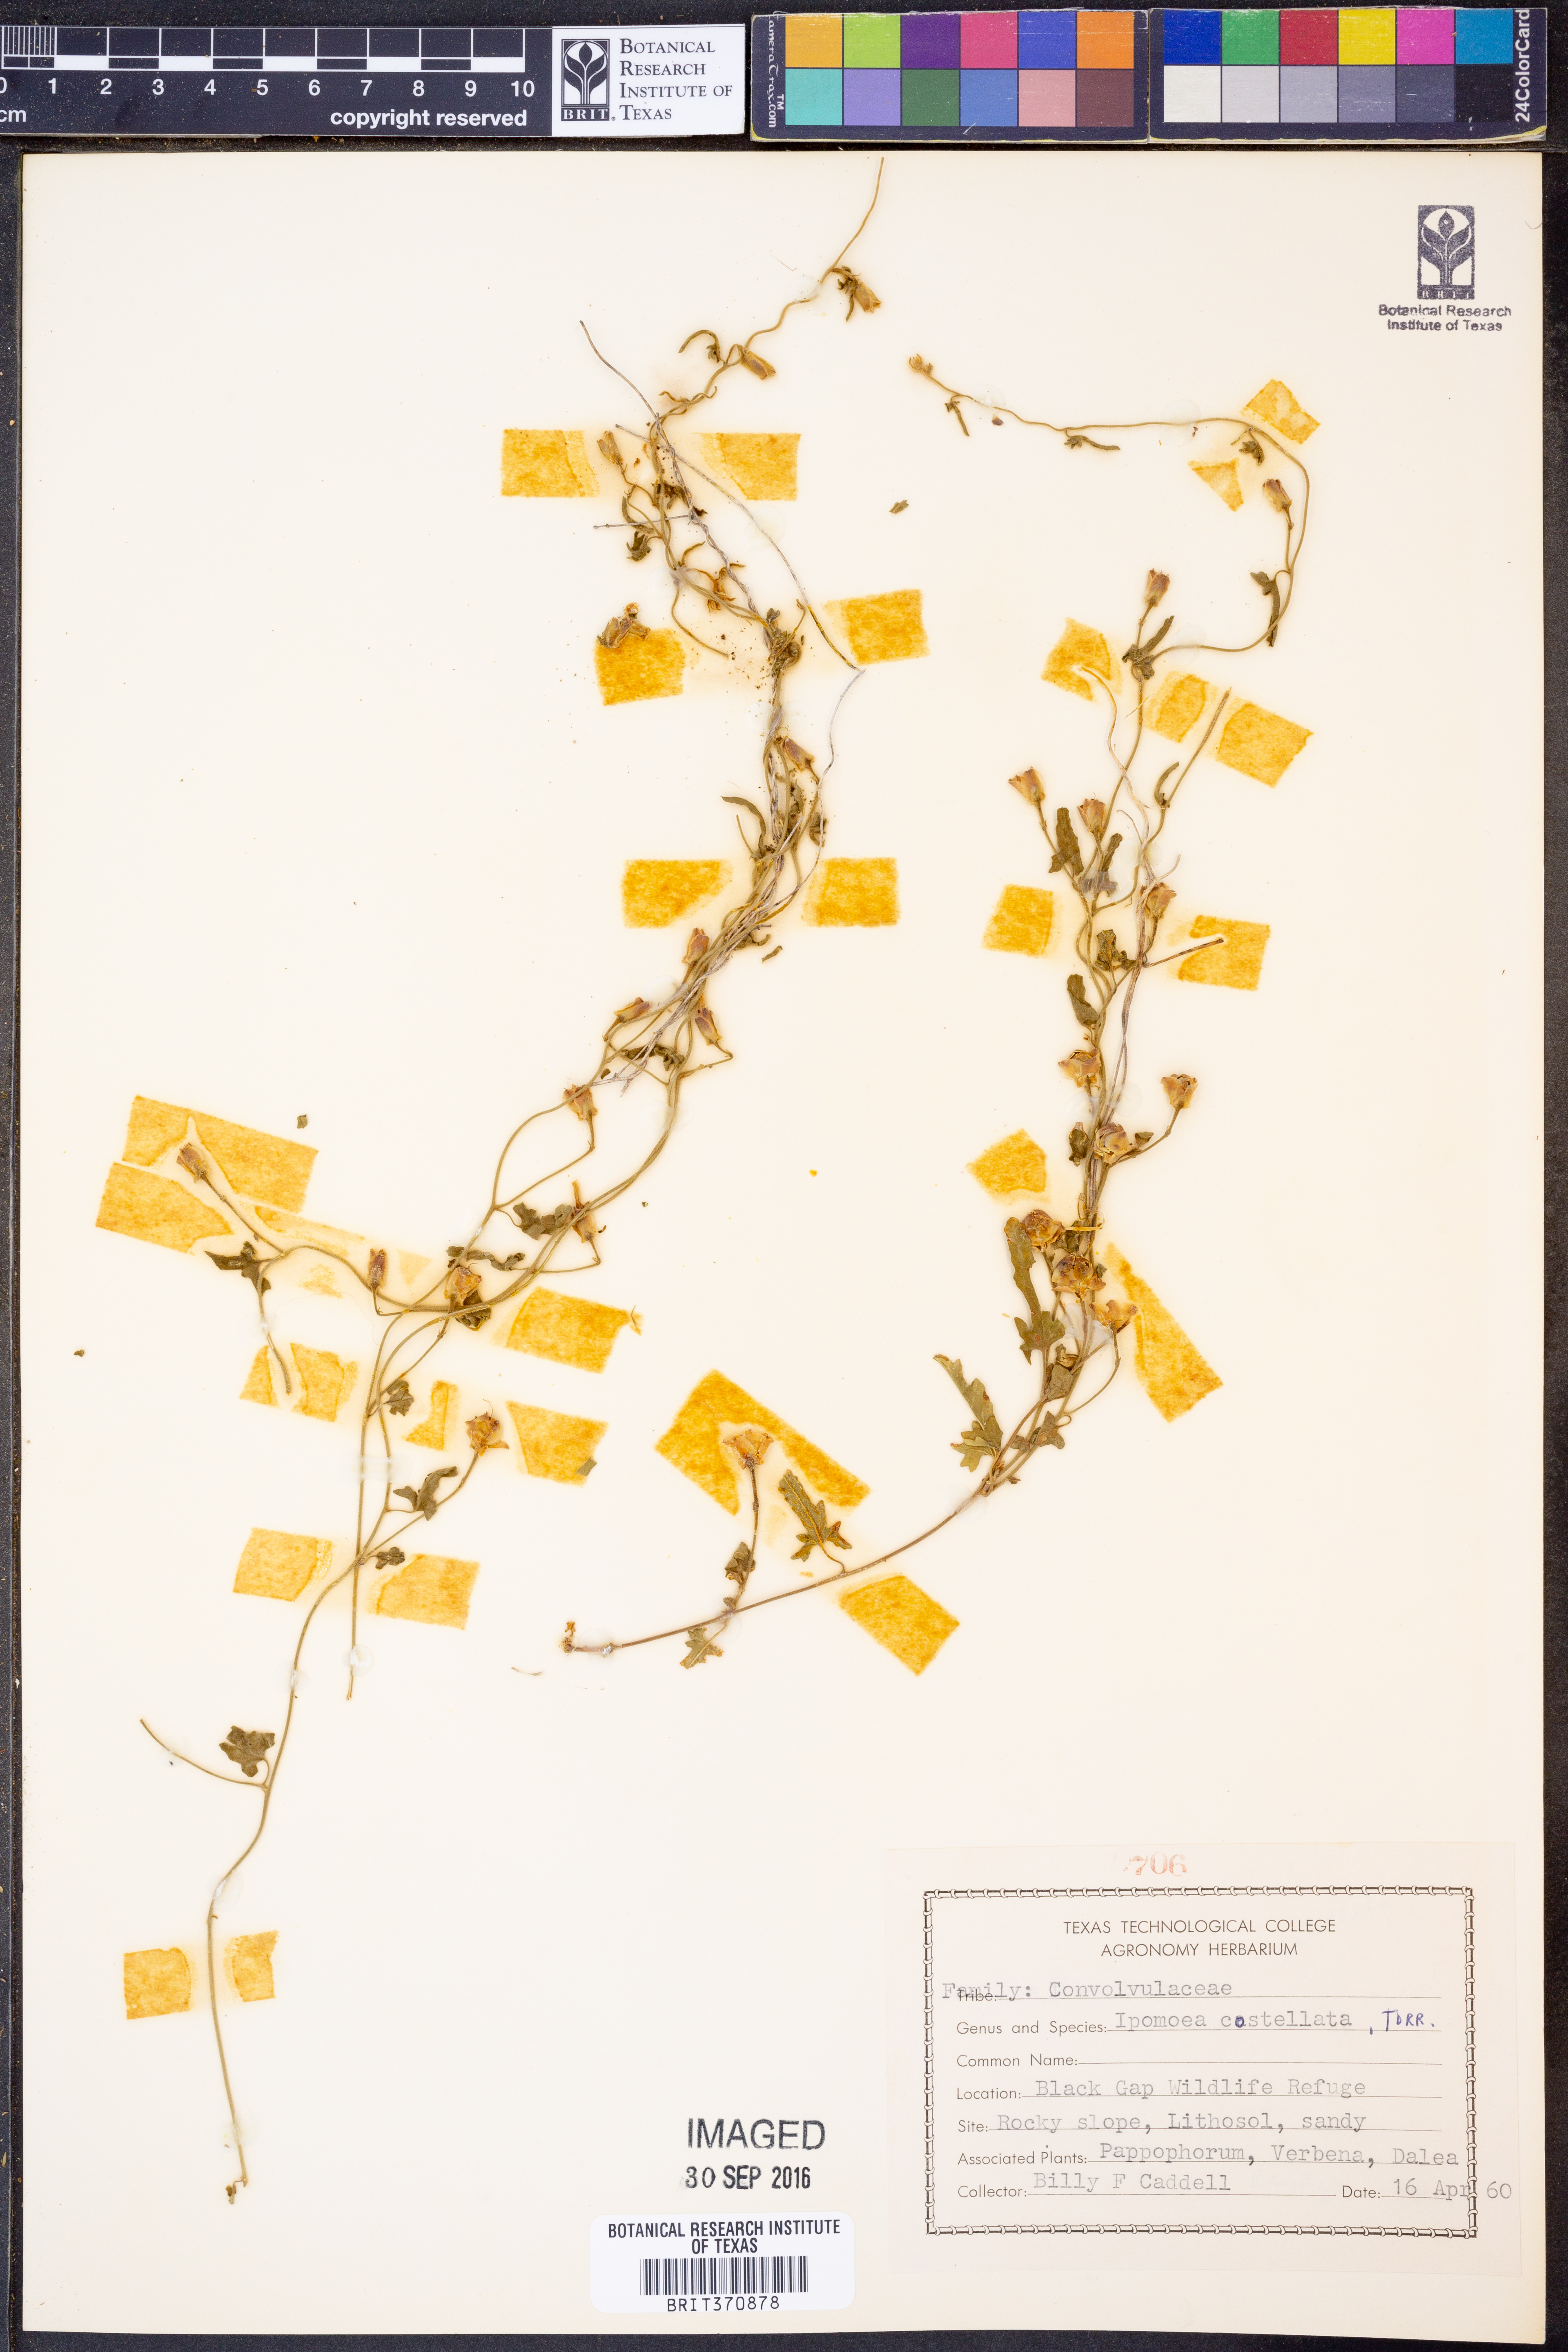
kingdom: Plantae
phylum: Tracheophyta
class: Magnoliopsida
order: Solanales
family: Convolvulaceae
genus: Convolvulus
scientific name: Convolvulus equitans
